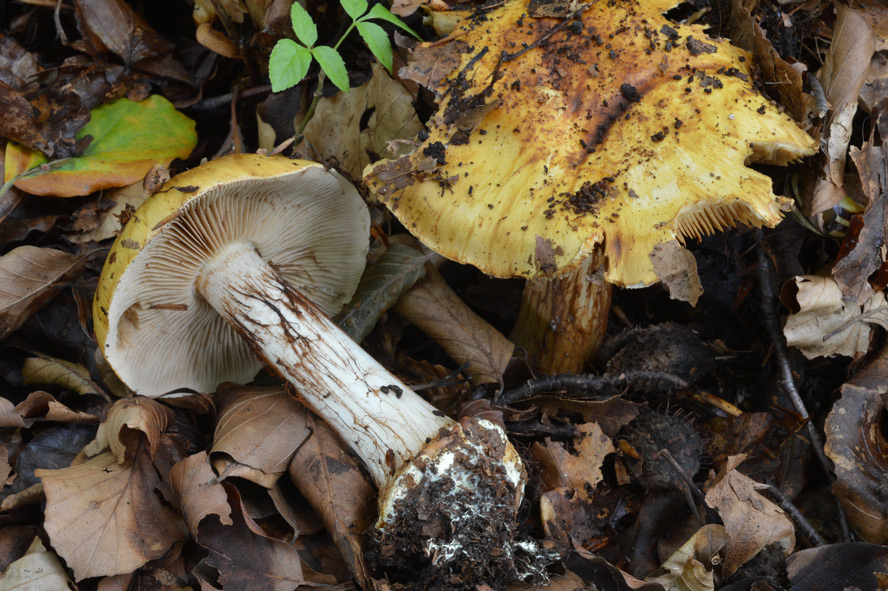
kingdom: Fungi
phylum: Basidiomycota
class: Agaricomycetes
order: Agaricales
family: Cortinariaceae
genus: Calonarius
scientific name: Calonarius langeorum
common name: Langes slørhat
